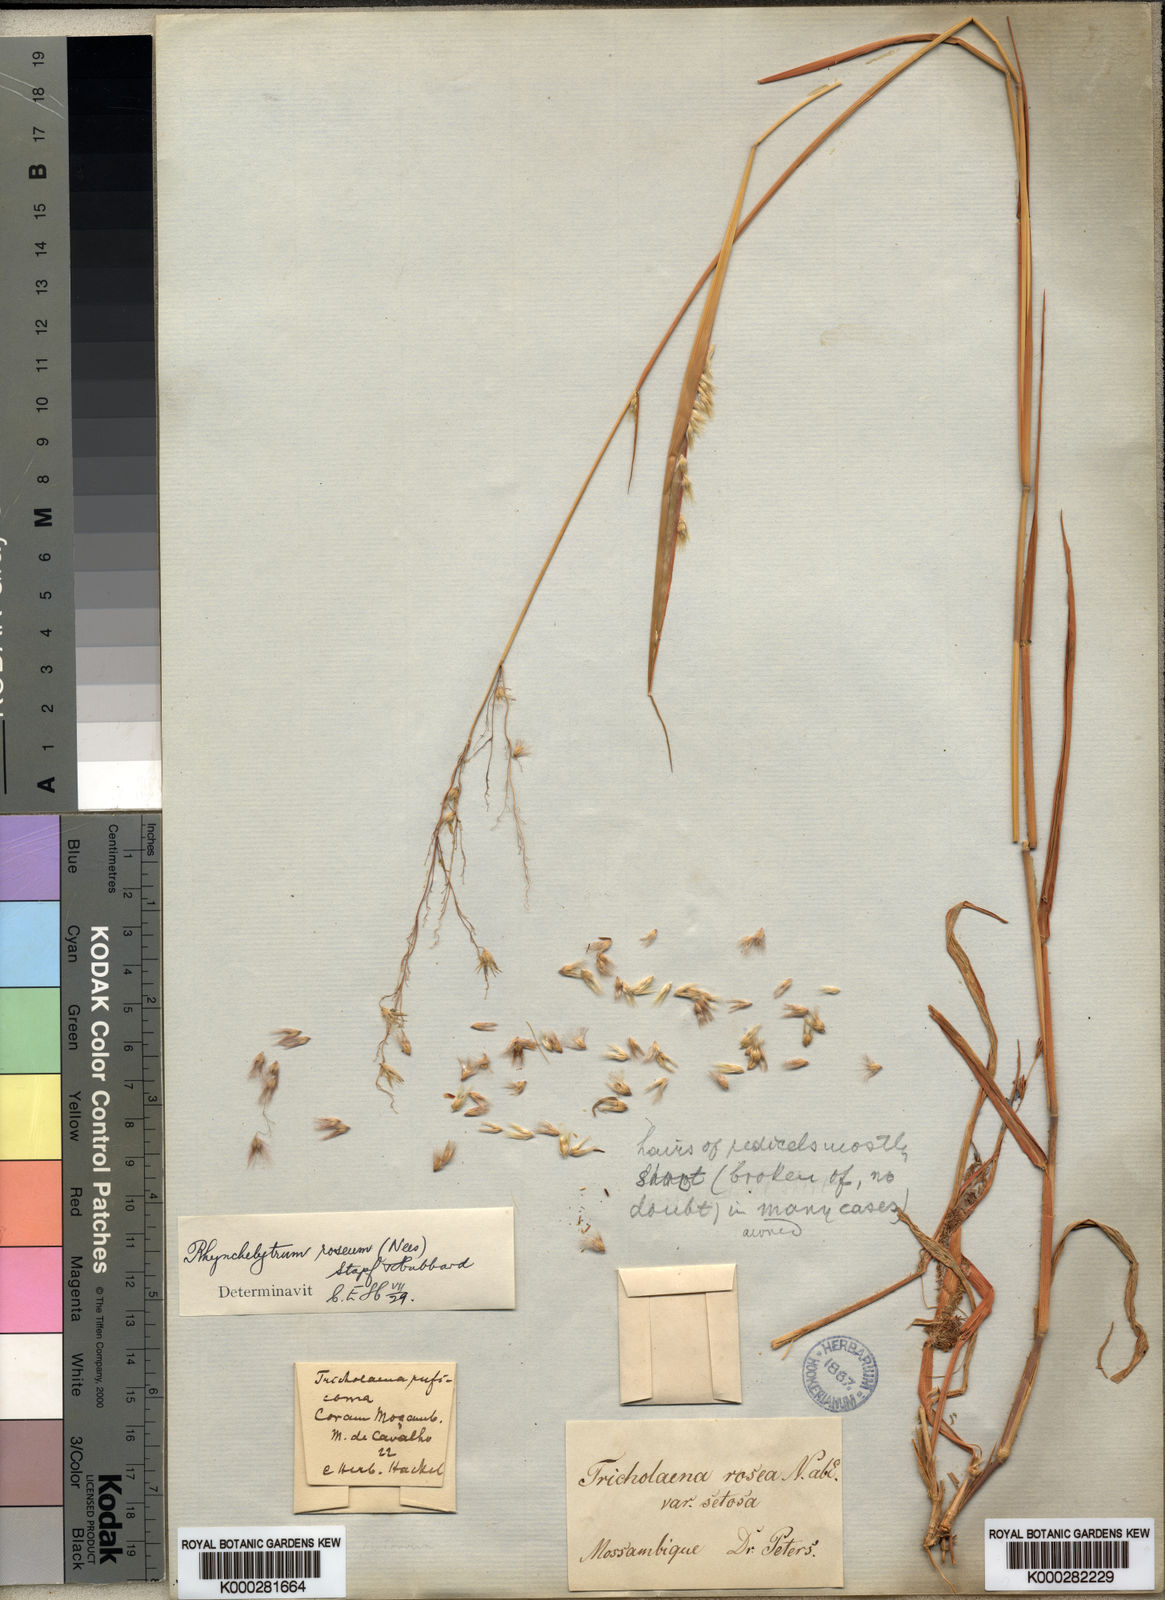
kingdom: Plantae
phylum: Tracheophyta
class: Liliopsida
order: Poales
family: Poaceae
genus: Melinis
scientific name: Melinis repens
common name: Rose natal grass
